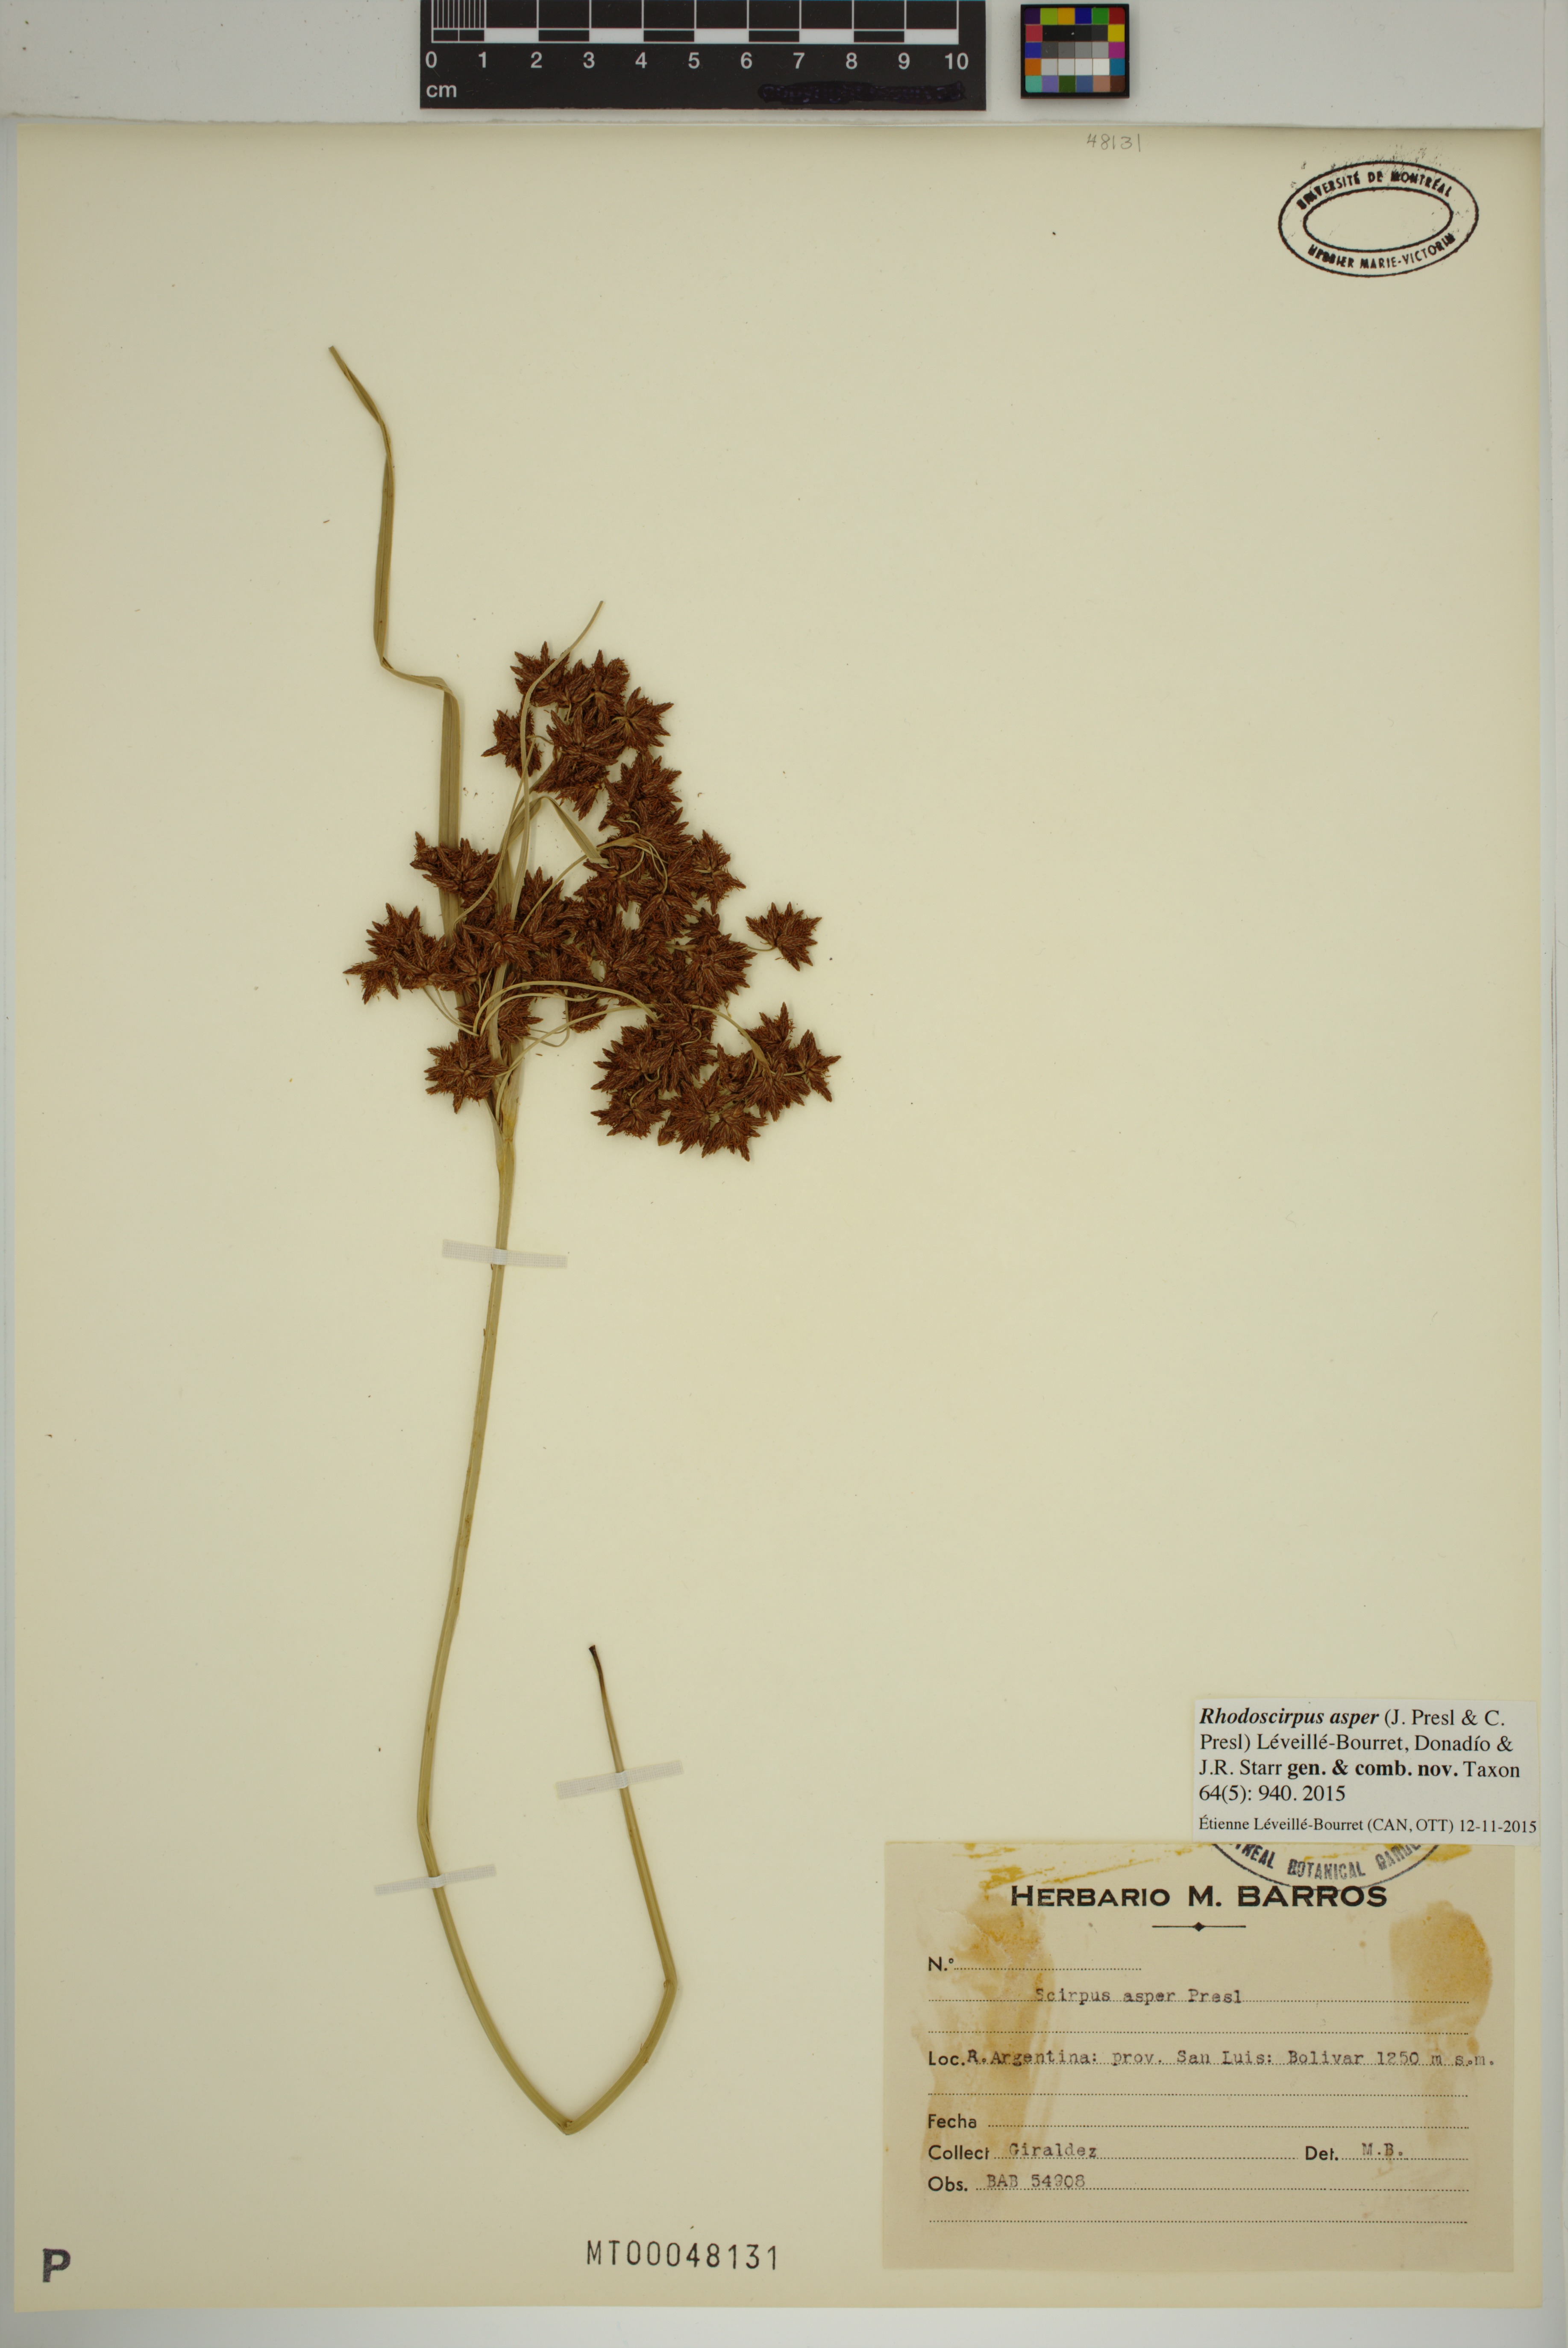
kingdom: Plantae
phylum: Tracheophyta
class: Liliopsida
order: Poales
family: Cyperaceae
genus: Rhodoscirpus
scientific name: Rhodoscirpus asper
